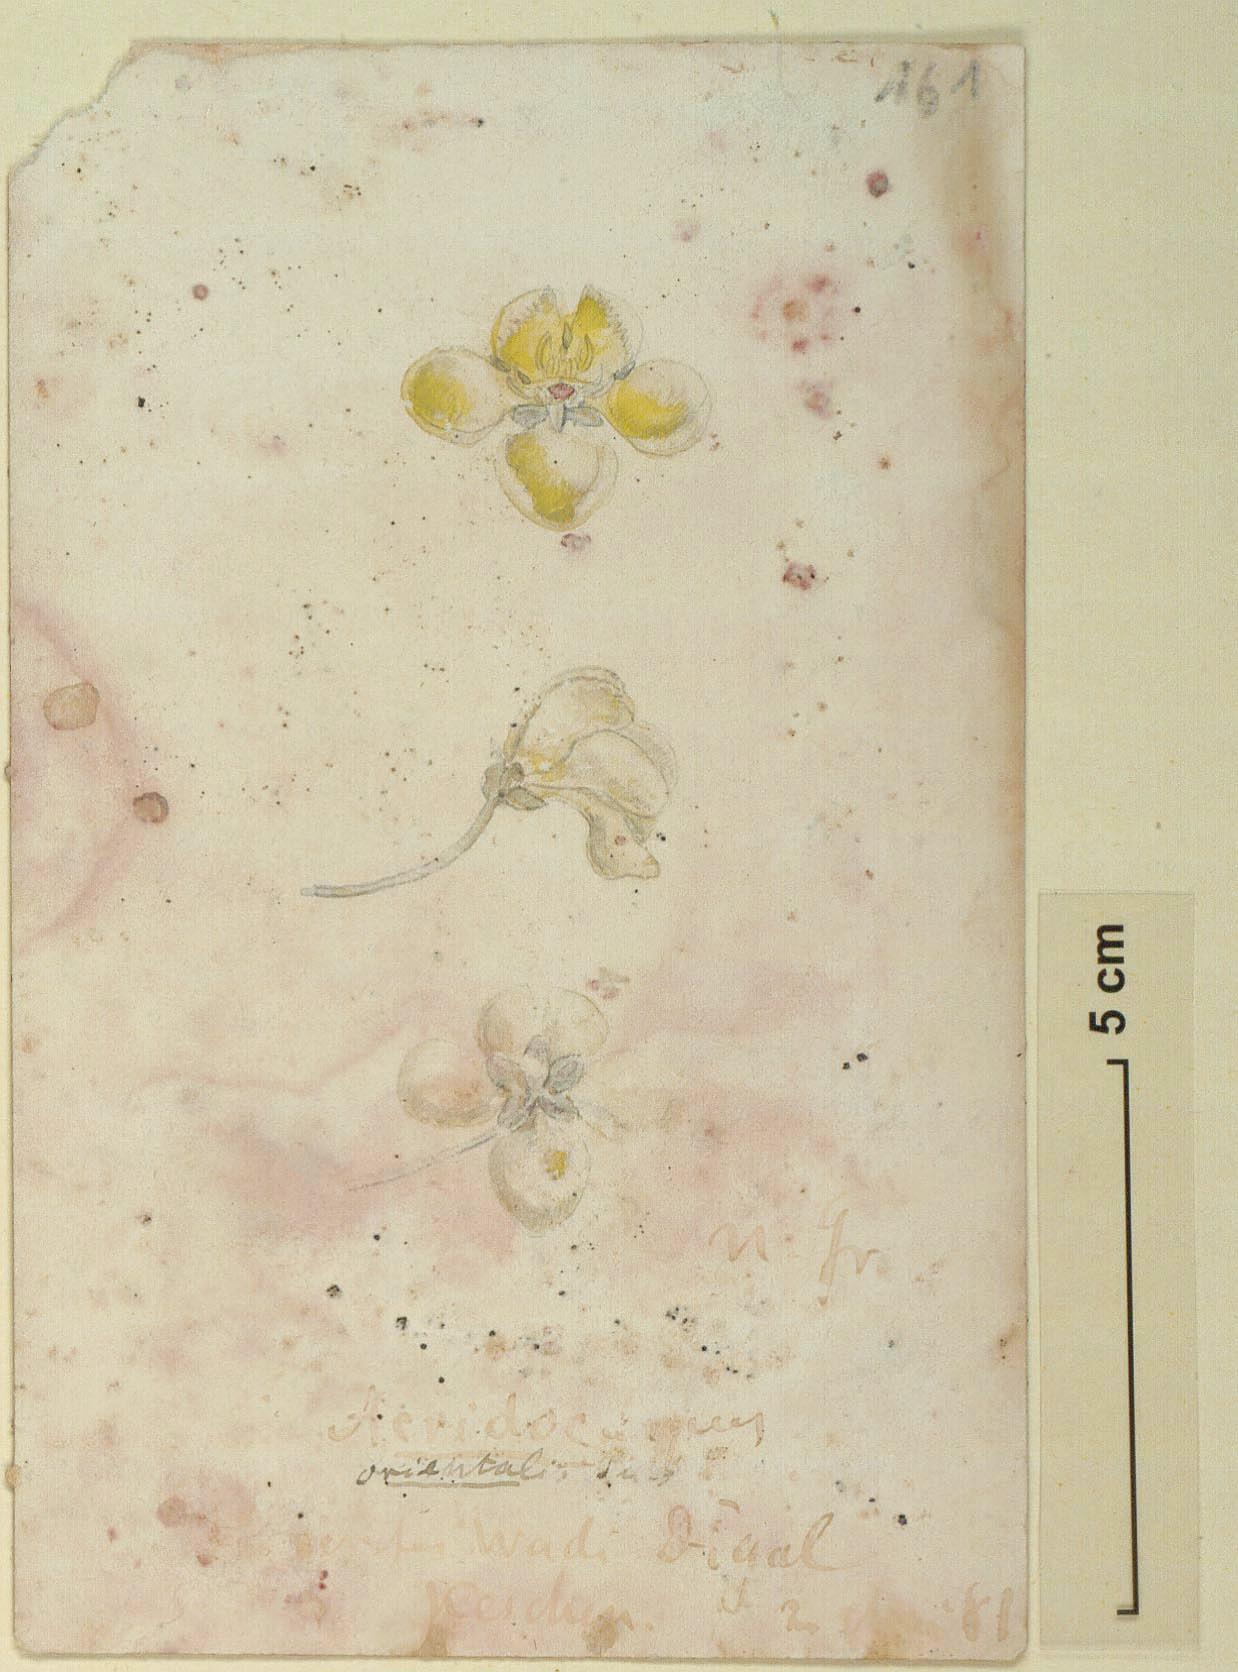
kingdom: Plantae
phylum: Tracheophyta
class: Magnoliopsida
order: Malpighiales
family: Malpighiaceae
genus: Acridocarpus
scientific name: Acridocarpus socotranus
